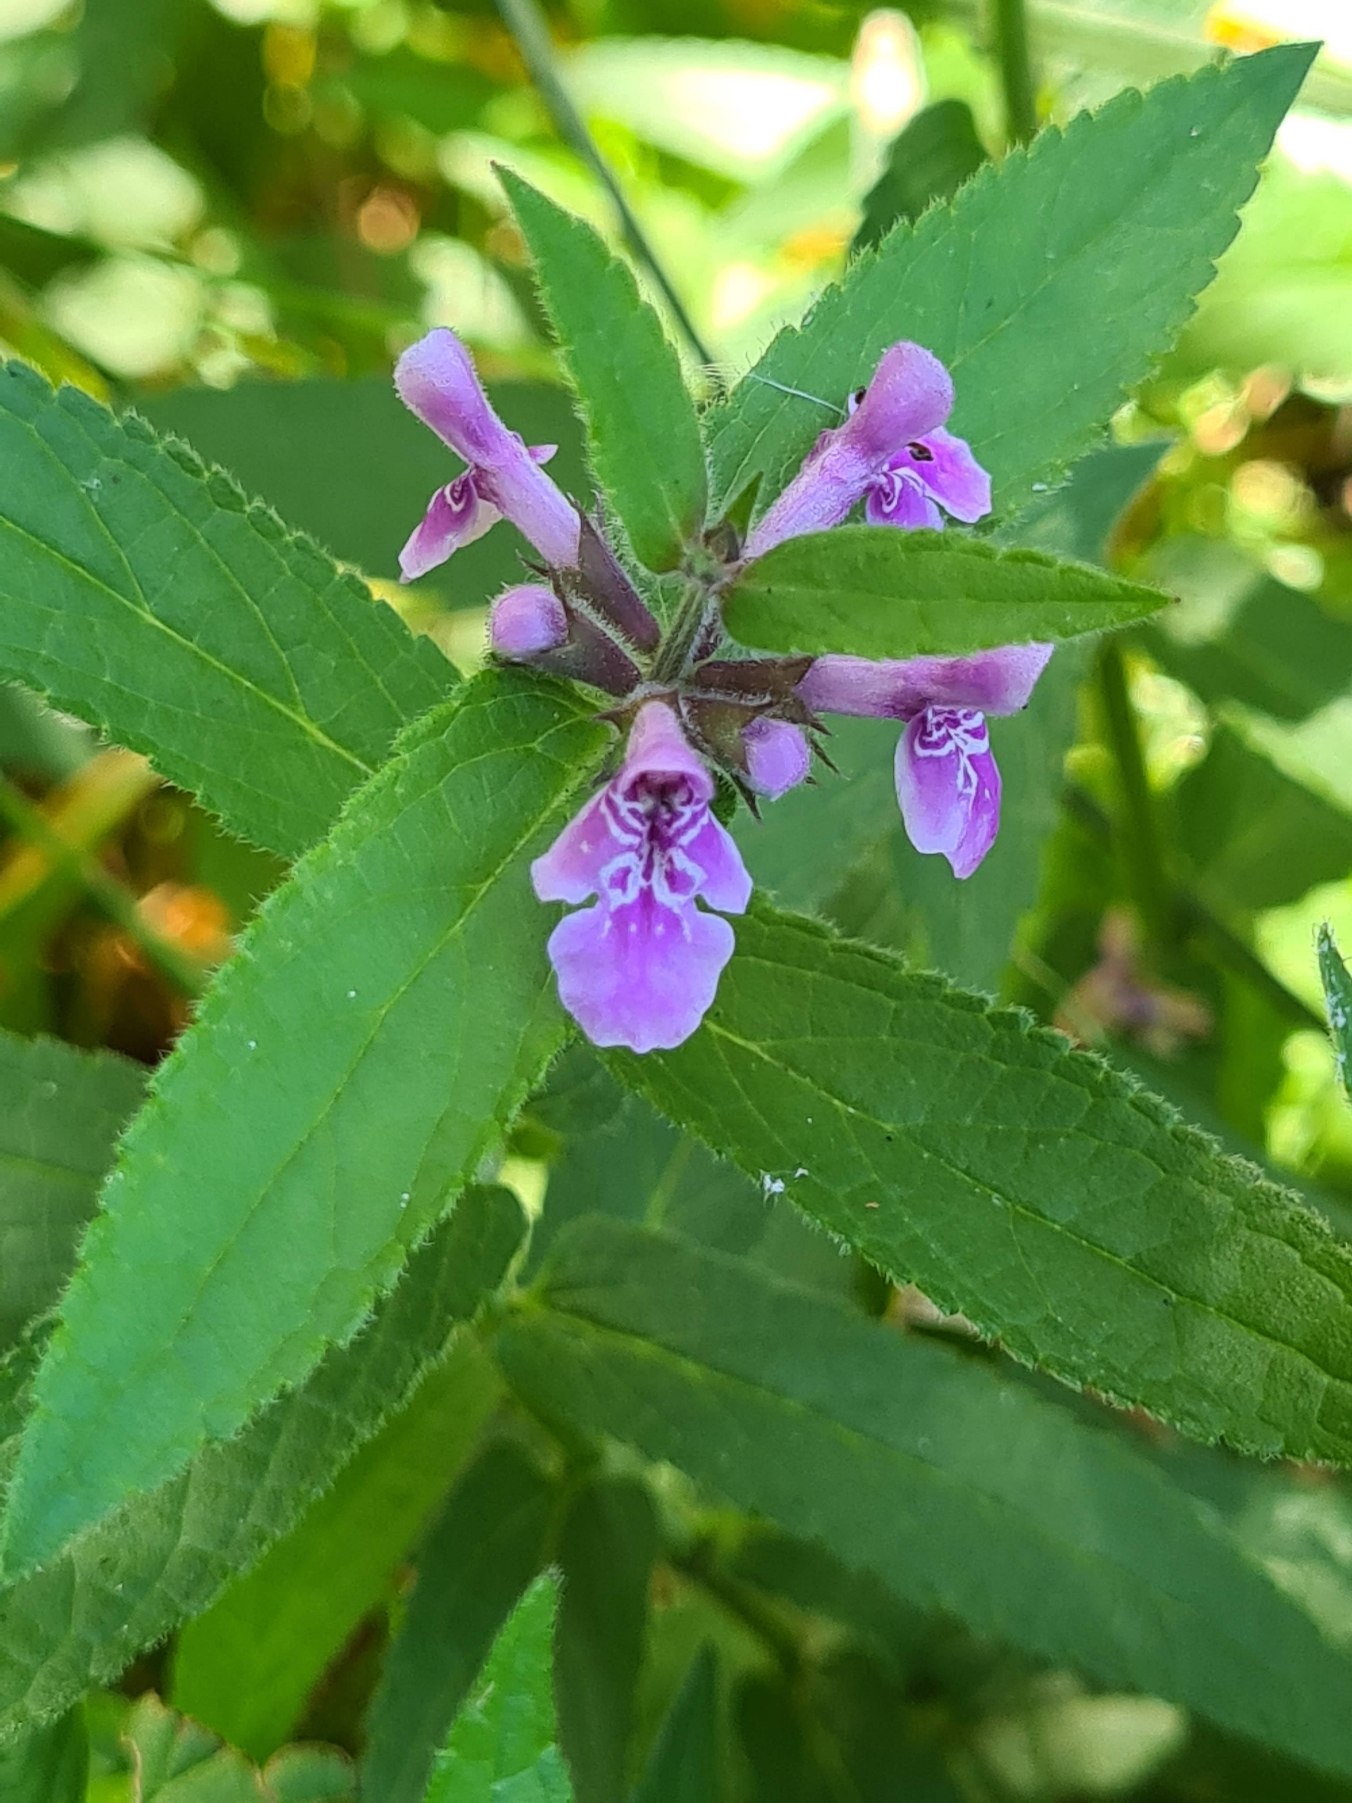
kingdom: Plantae
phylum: Tracheophyta
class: Magnoliopsida
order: Lamiales
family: Lamiaceae
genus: Stachys
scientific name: Stachys palustris
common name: Kær-galtetand
